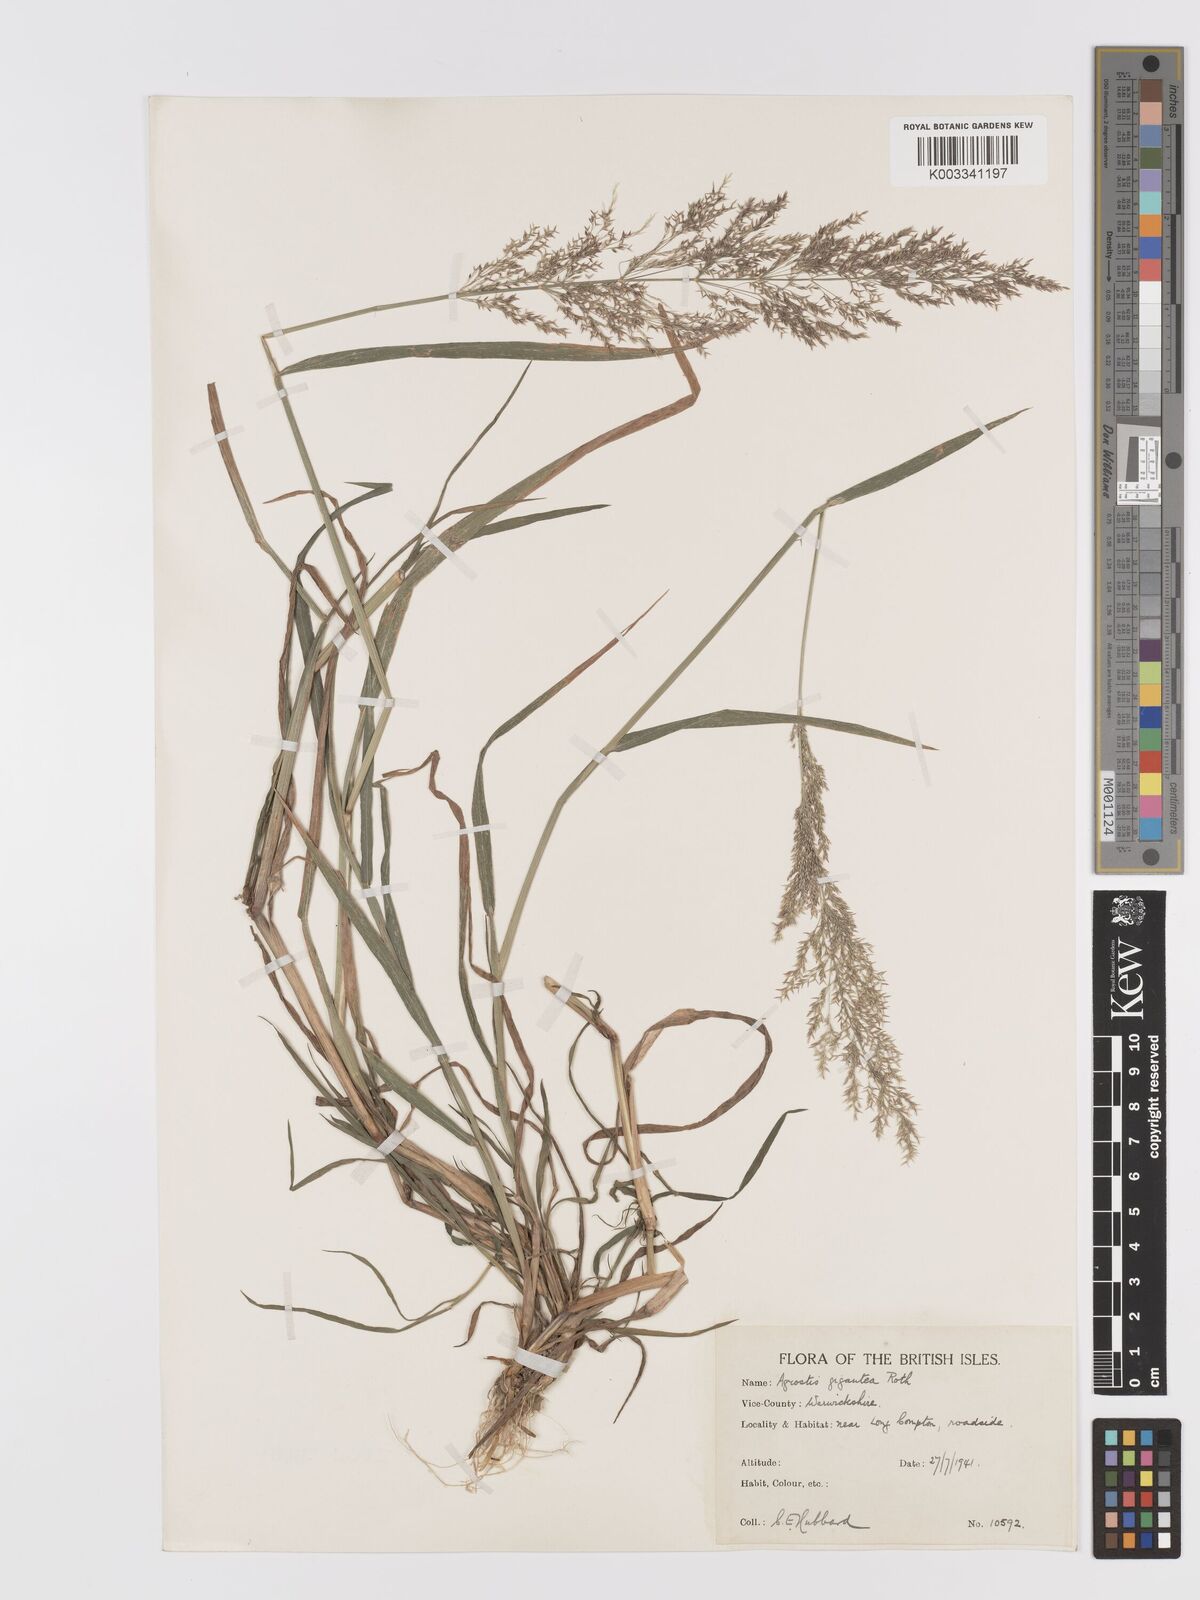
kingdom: Plantae
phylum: Tracheophyta
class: Liliopsida
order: Poales
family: Poaceae
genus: Agrostis
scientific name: Agrostis gigantea
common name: Black bent
